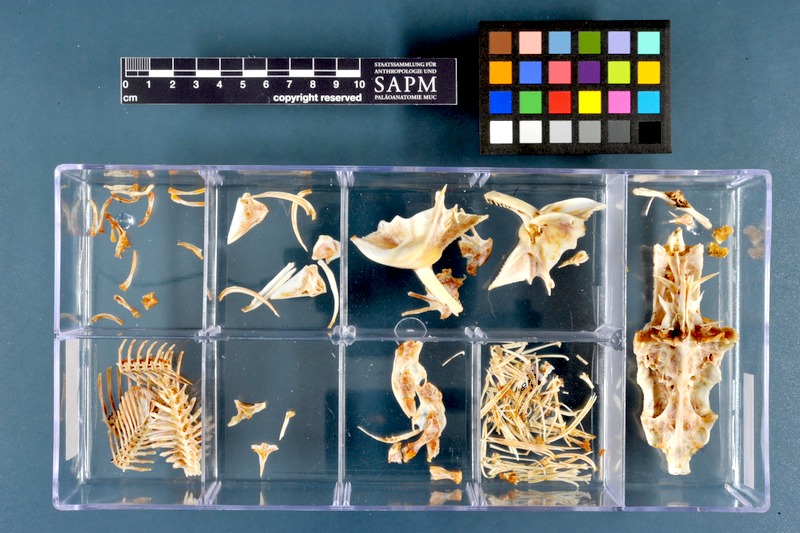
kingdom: Animalia
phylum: Chordata
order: Siluriformes
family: Mochokidae
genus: Synodontis
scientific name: Synodontis caudovittatus
